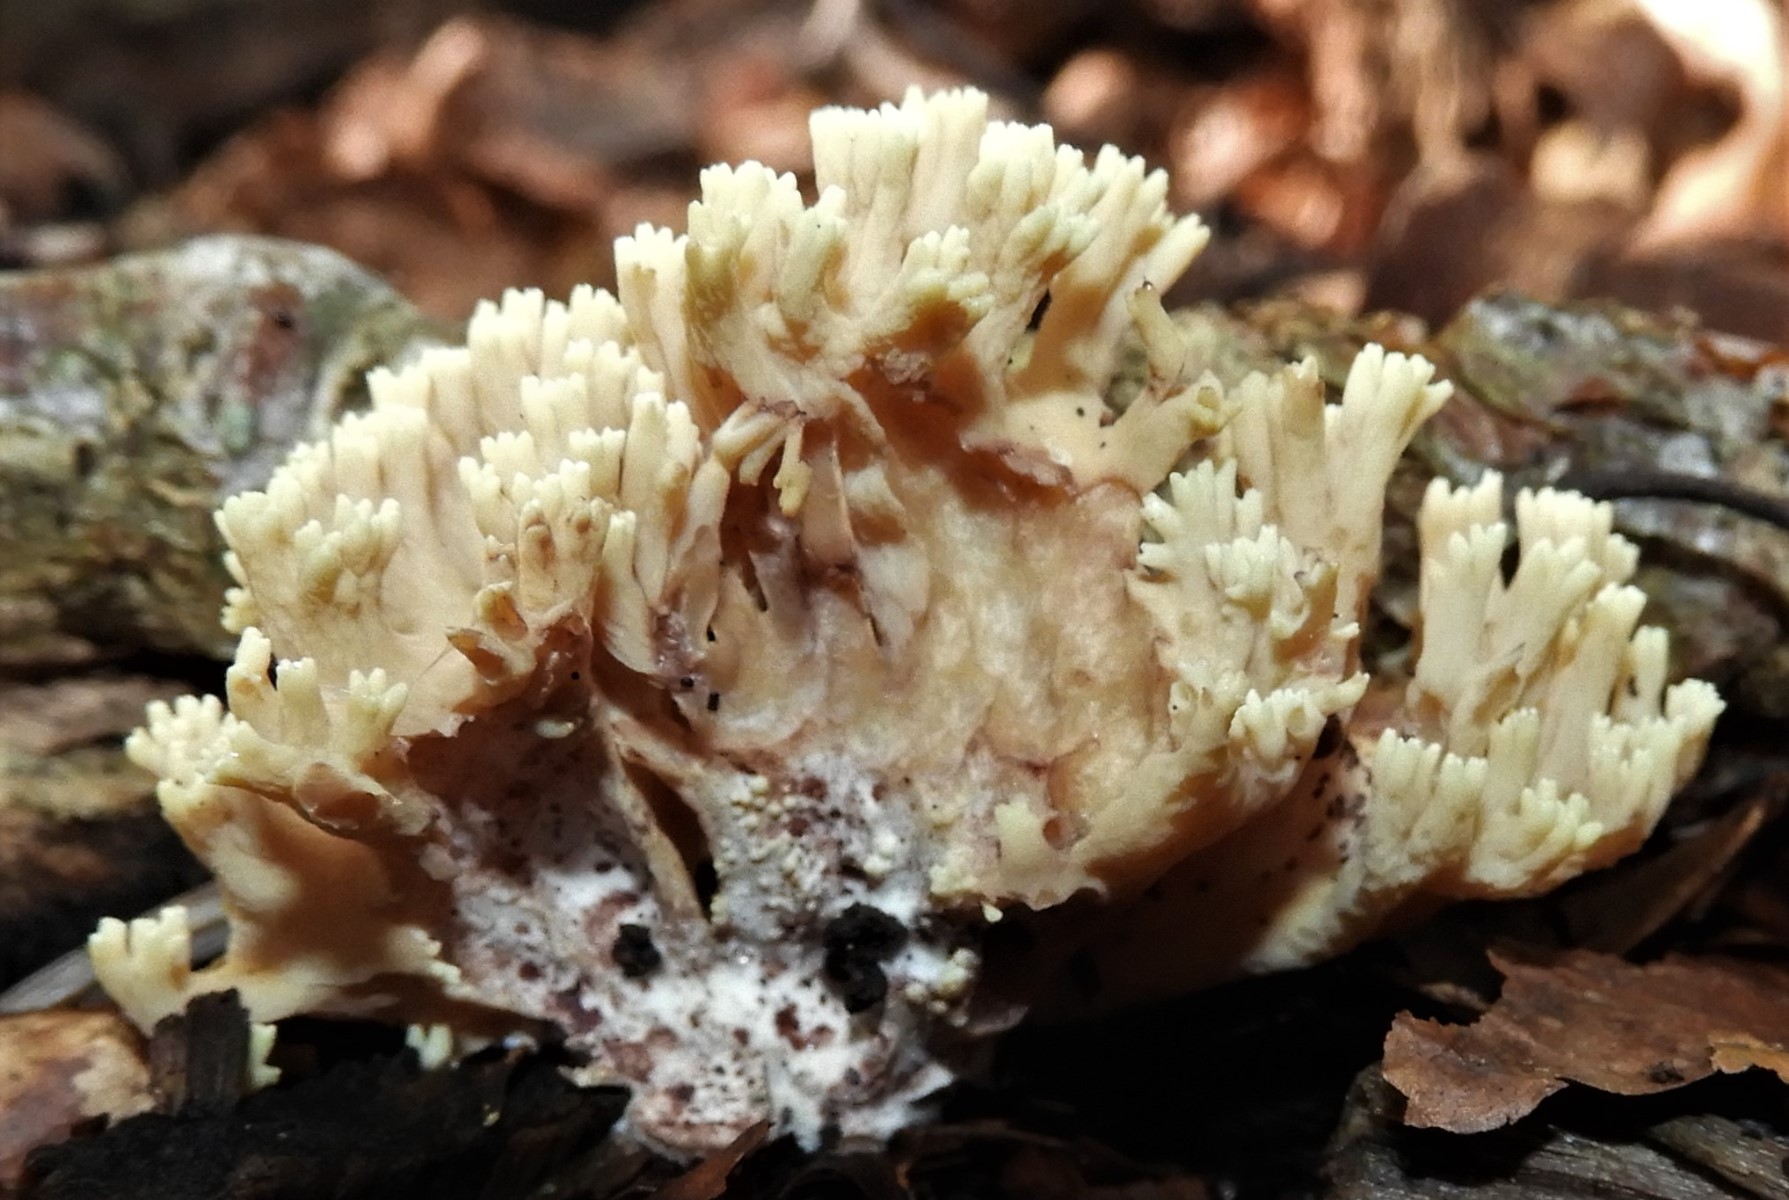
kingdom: Fungi
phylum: Basidiomycota
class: Agaricomycetes
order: Gomphales
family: Gomphaceae
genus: Ramaria
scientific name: Ramaria stricta
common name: rank koralsvamp
